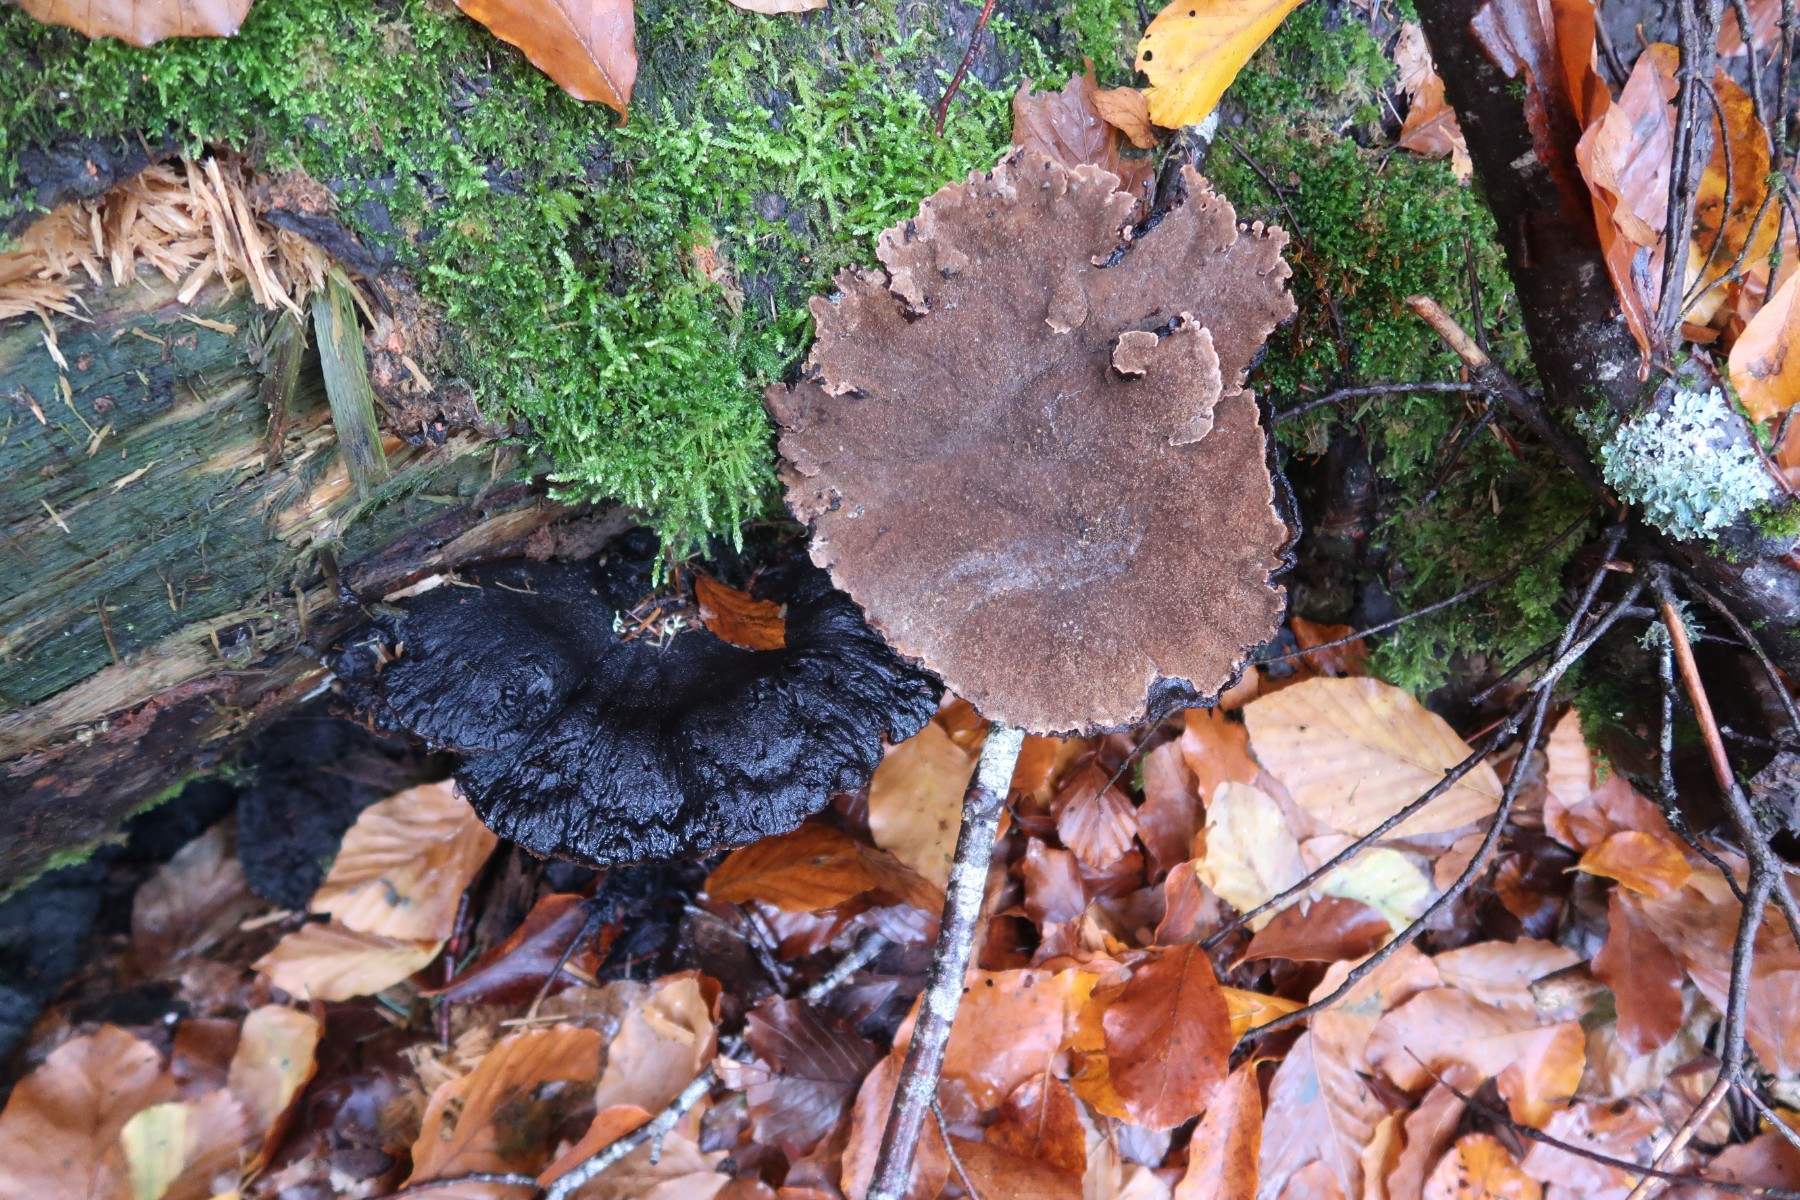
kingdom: Fungi
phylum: Basidiomycota
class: Agaricomycetes
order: Polyporales
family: Ischnodermataceae
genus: Ischnoderma
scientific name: Ischnoderma benzoinum
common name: gran-tjæreporesvamp
